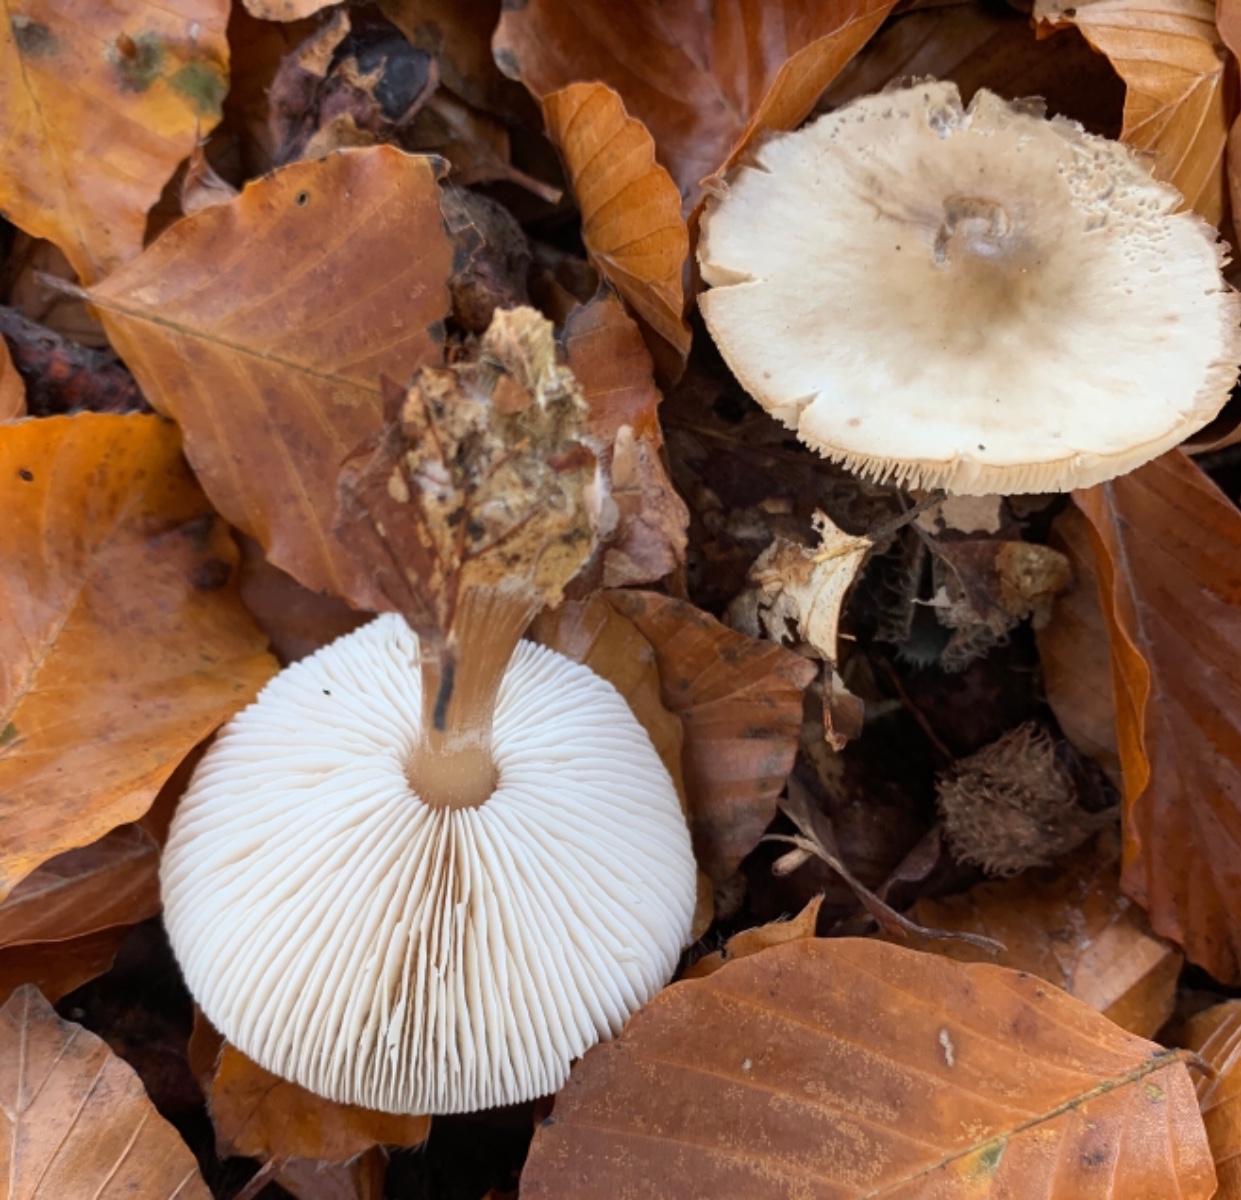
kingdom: Fungi
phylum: Basidiomycota
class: Agaricomycetes
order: Agaricales
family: Omphalotaceae
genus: Rhodocollybia
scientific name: Rhodocollybia asema
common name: horngrå fladhat
